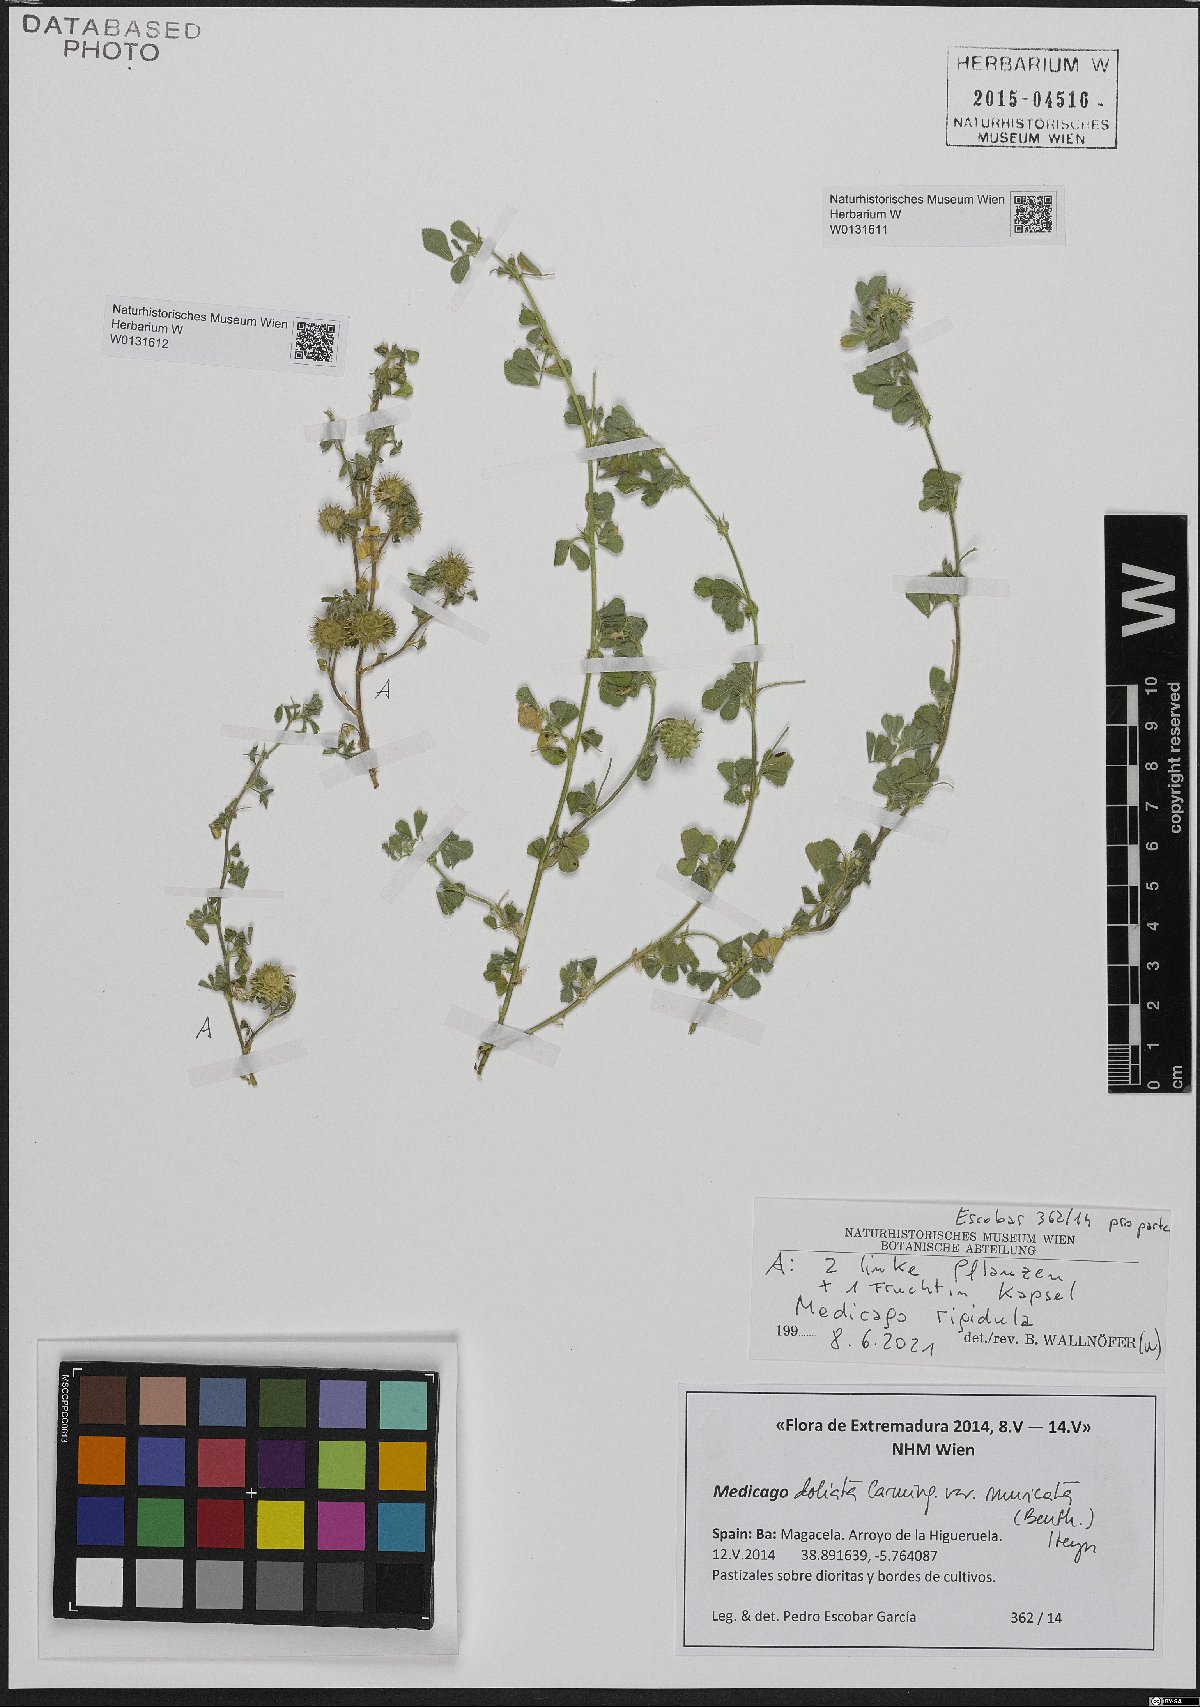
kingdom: Plantae
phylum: Tracheophyta
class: Magnoliopsida
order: Fabales
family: Fabaceae
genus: Medicago
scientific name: Medicago doliata
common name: Keg medic
